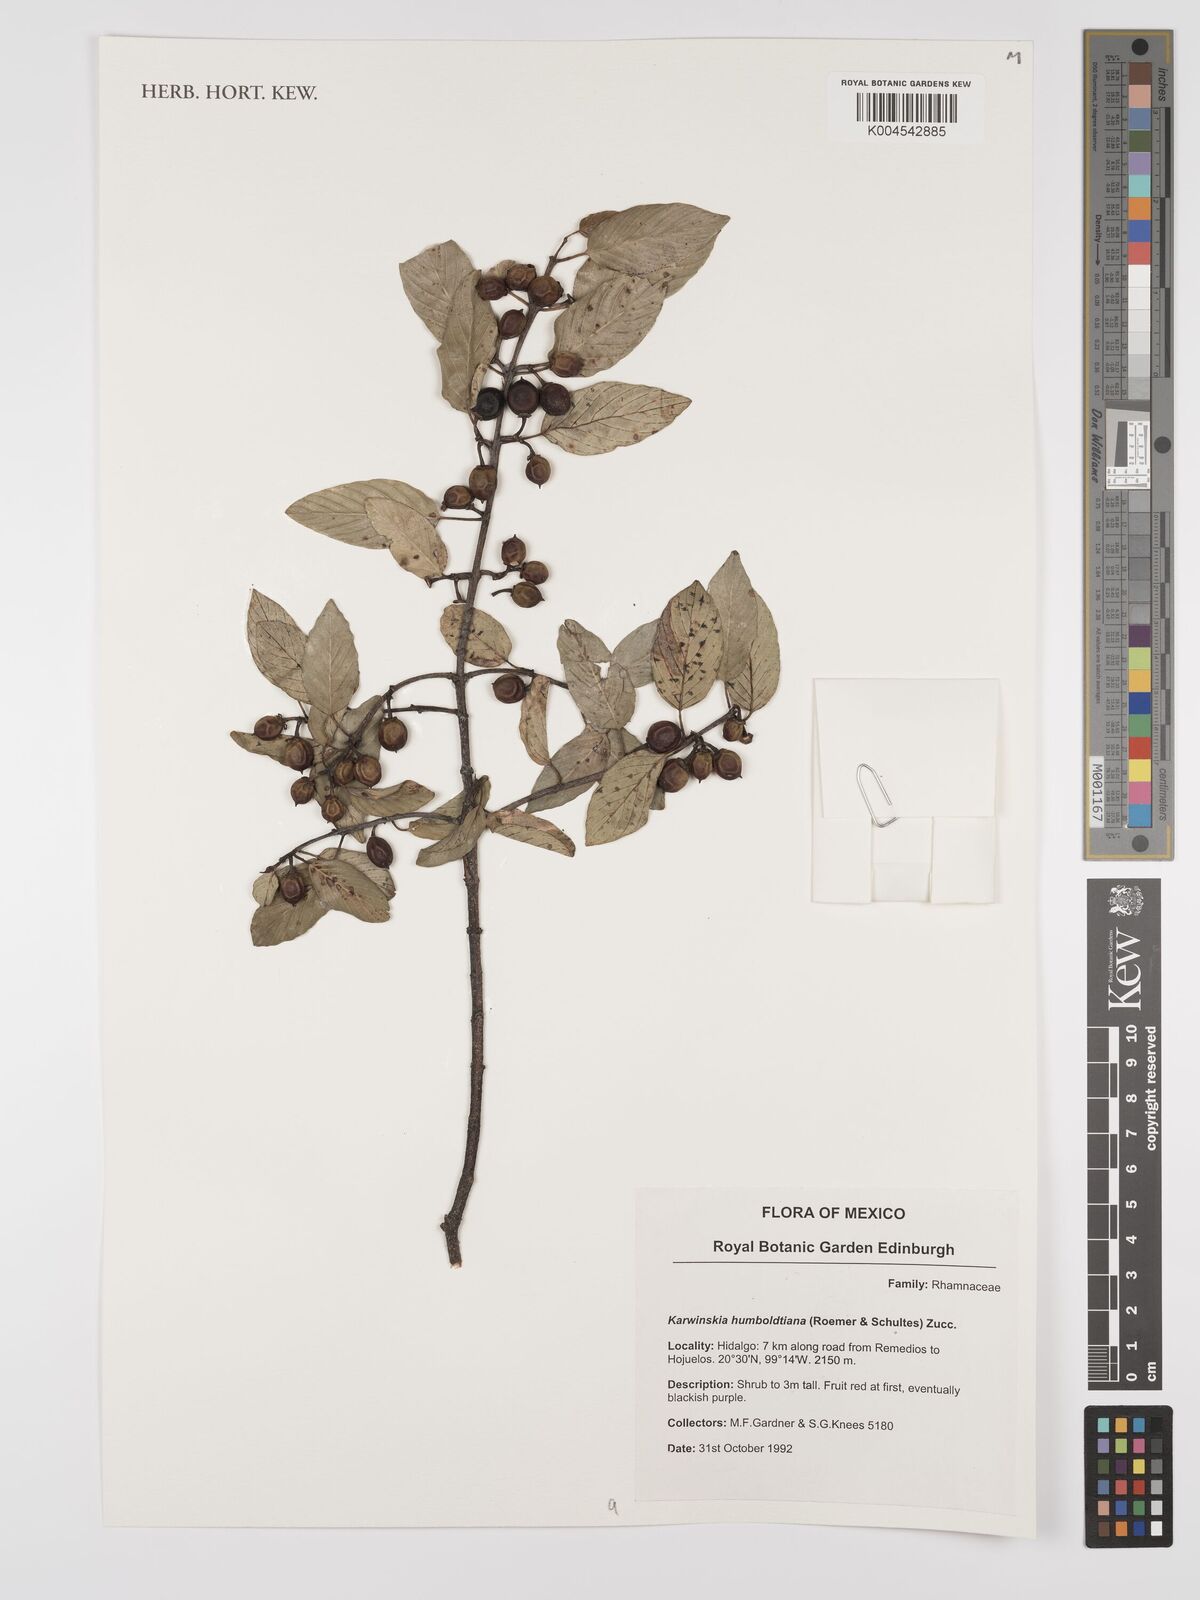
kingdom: Plantae
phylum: Tracheophyta
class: Magnoliopsida
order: Rosales
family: Rhamnaceae
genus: Karwinskia
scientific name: Karwinskia humboldtiana
